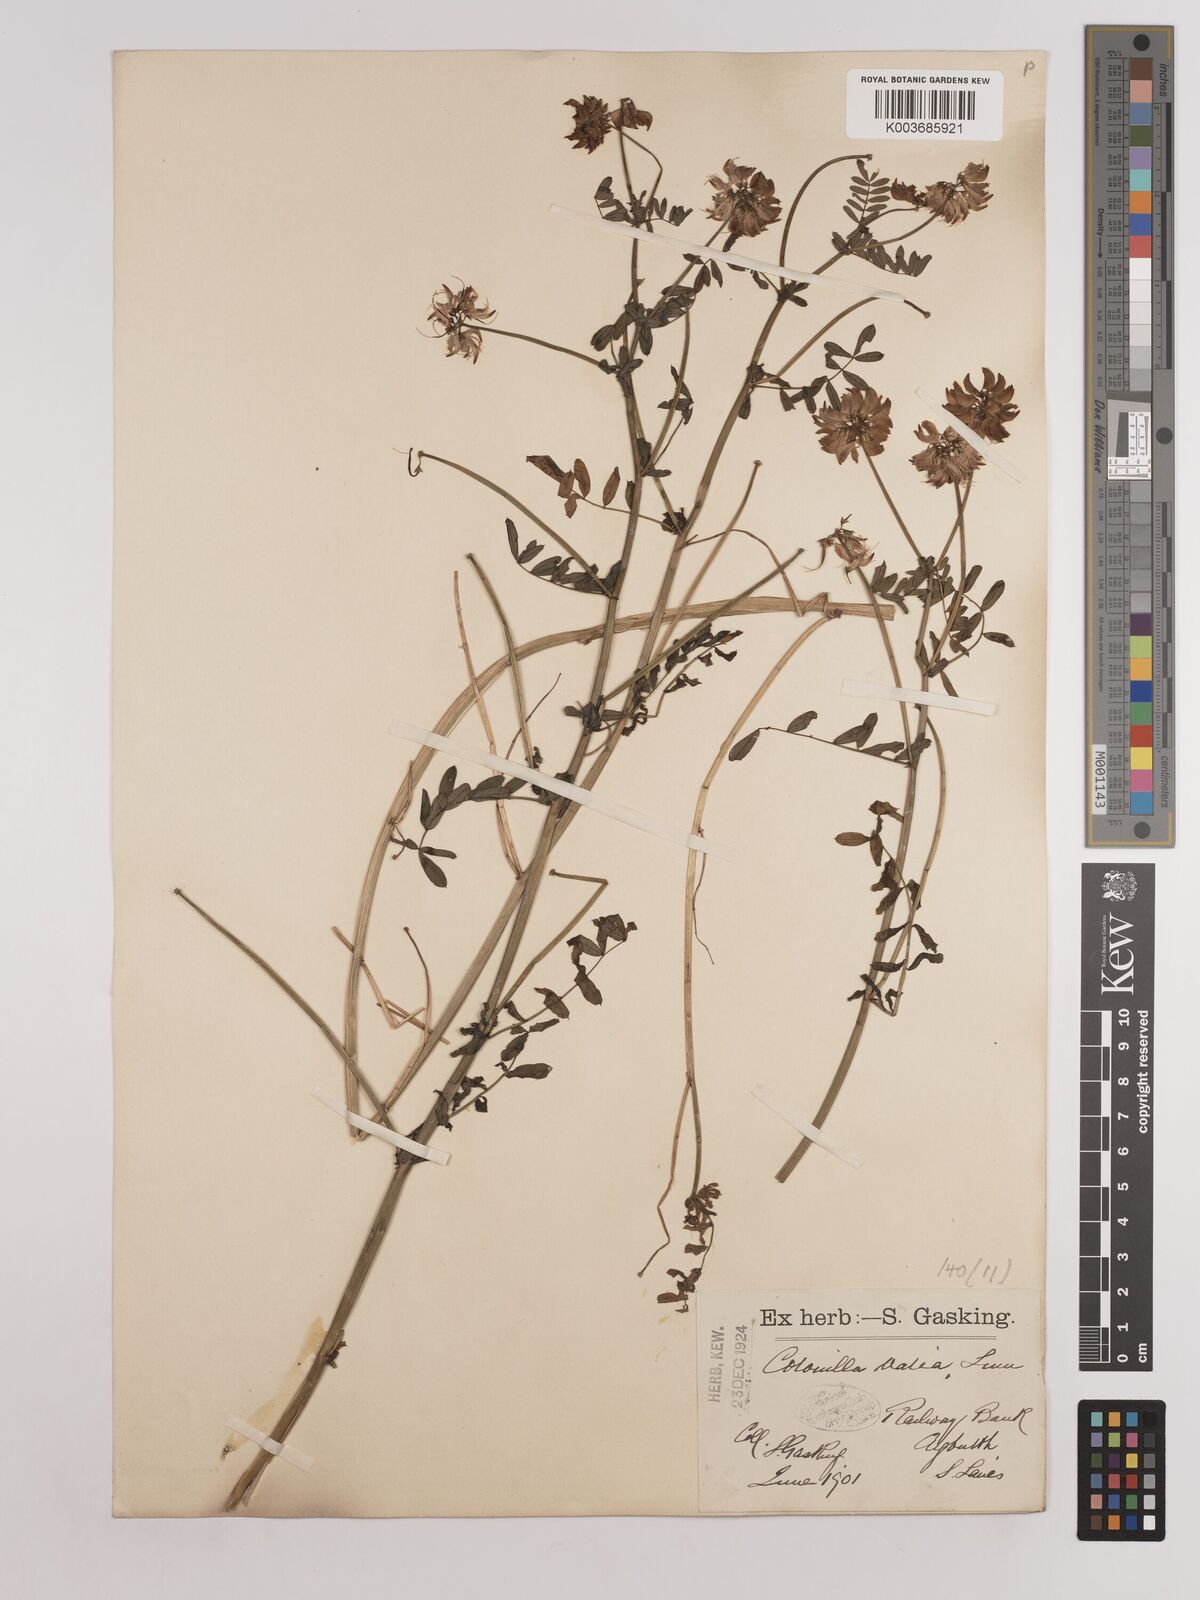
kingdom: Plantae
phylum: Tracheophyta
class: Magnoliopsida
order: Fabales
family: Fabaceae
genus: Coronilla
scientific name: Coronilla varia
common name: Crownvetch
